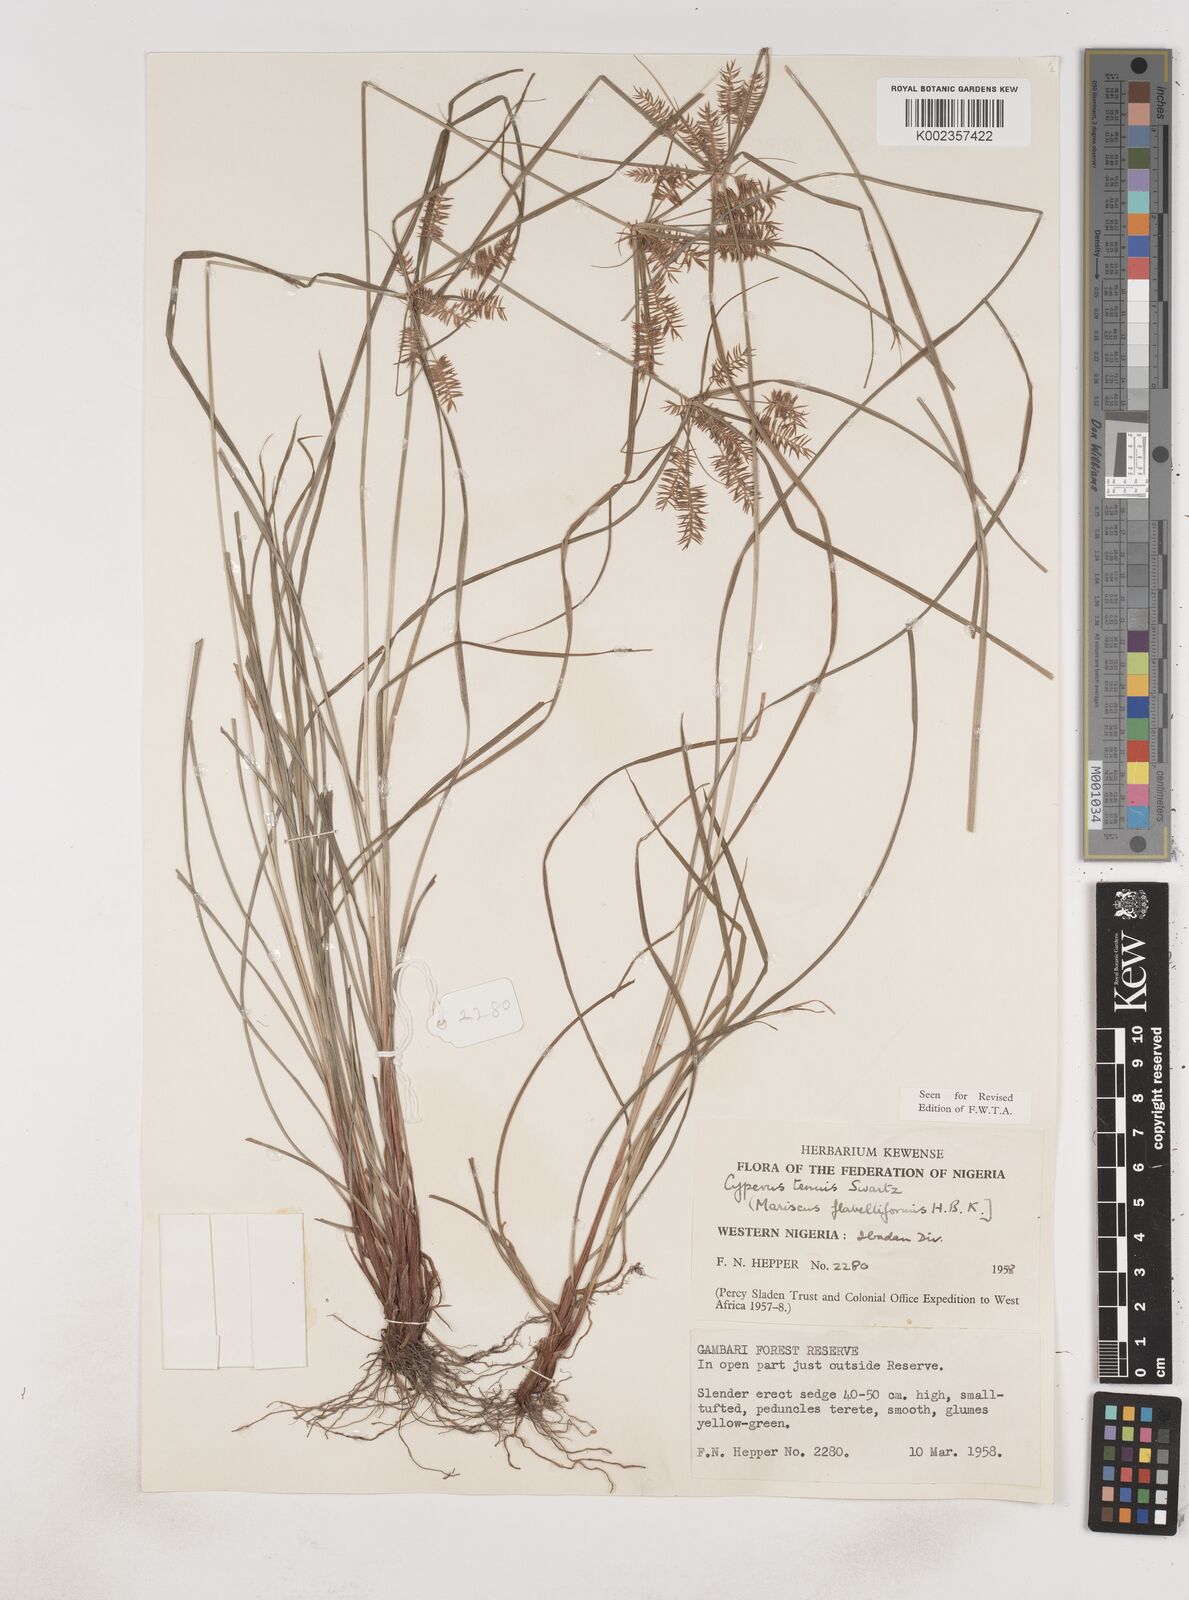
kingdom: Plantae
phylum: Tracheophyta
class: Liliopsida
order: Poales
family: Cyperaceae
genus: Cyperus
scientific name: Cyperus tenuis
